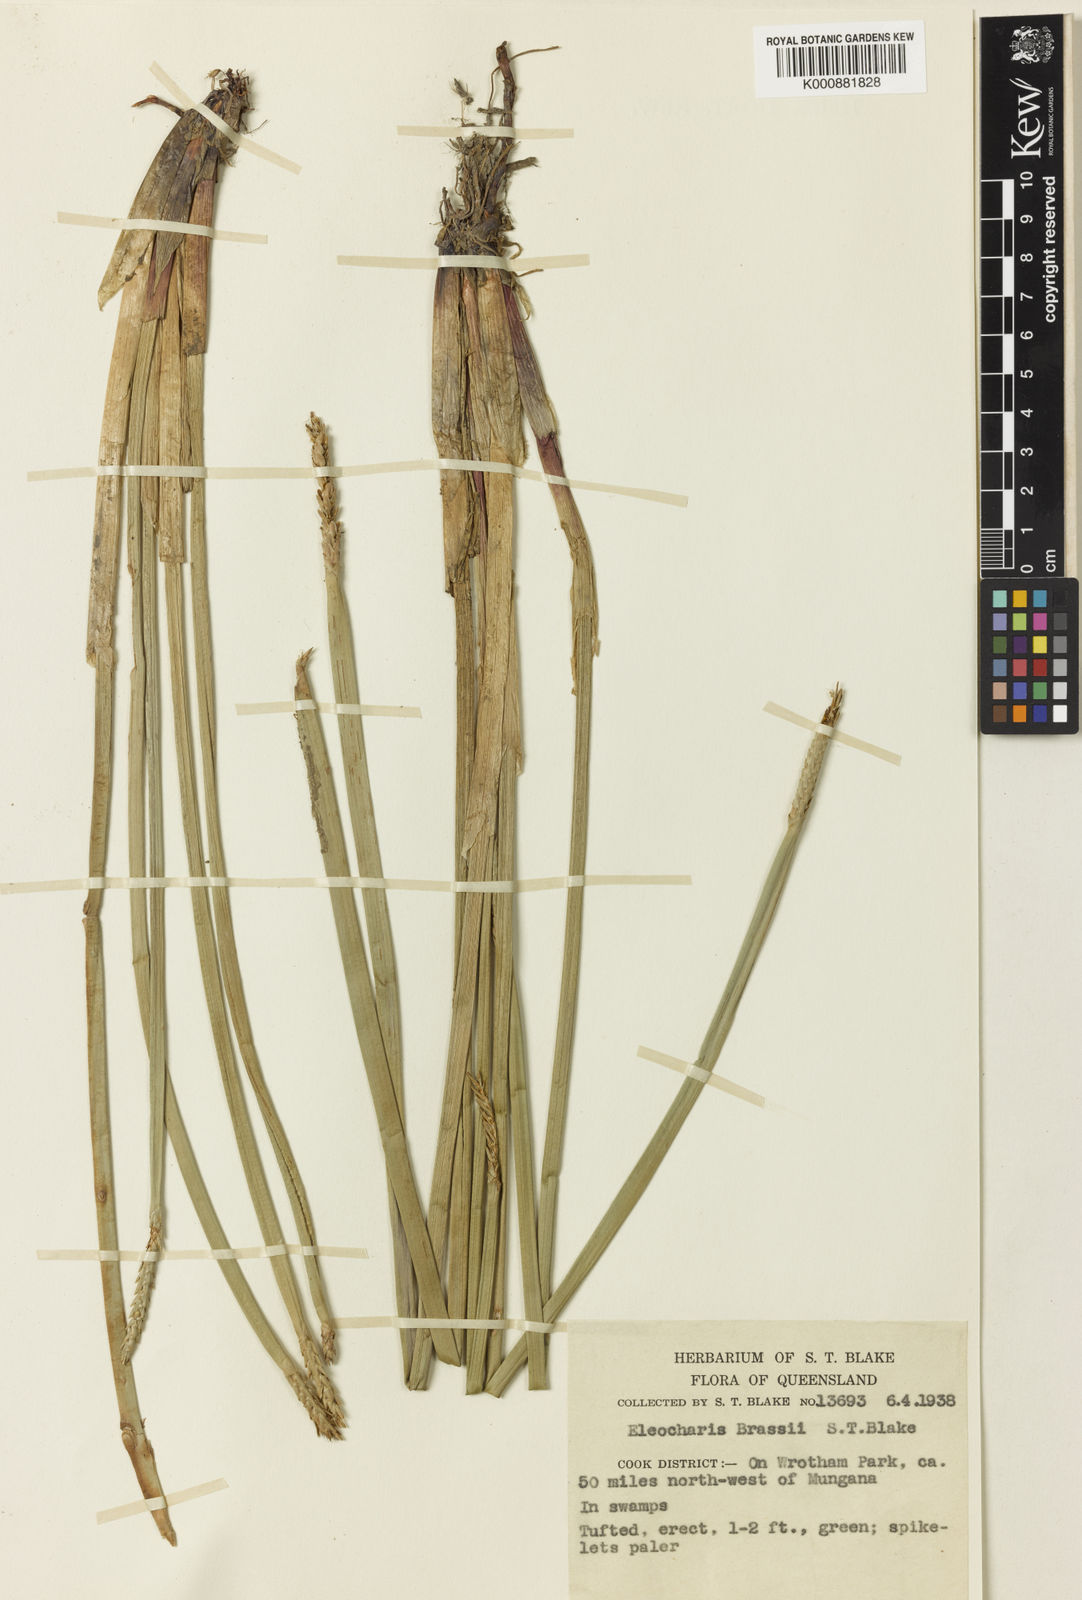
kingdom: Plantae
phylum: Tracheophyta
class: Liliopsida
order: Poales
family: Cyperaceae
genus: Eleocharis
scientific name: Eleocharis brassii
